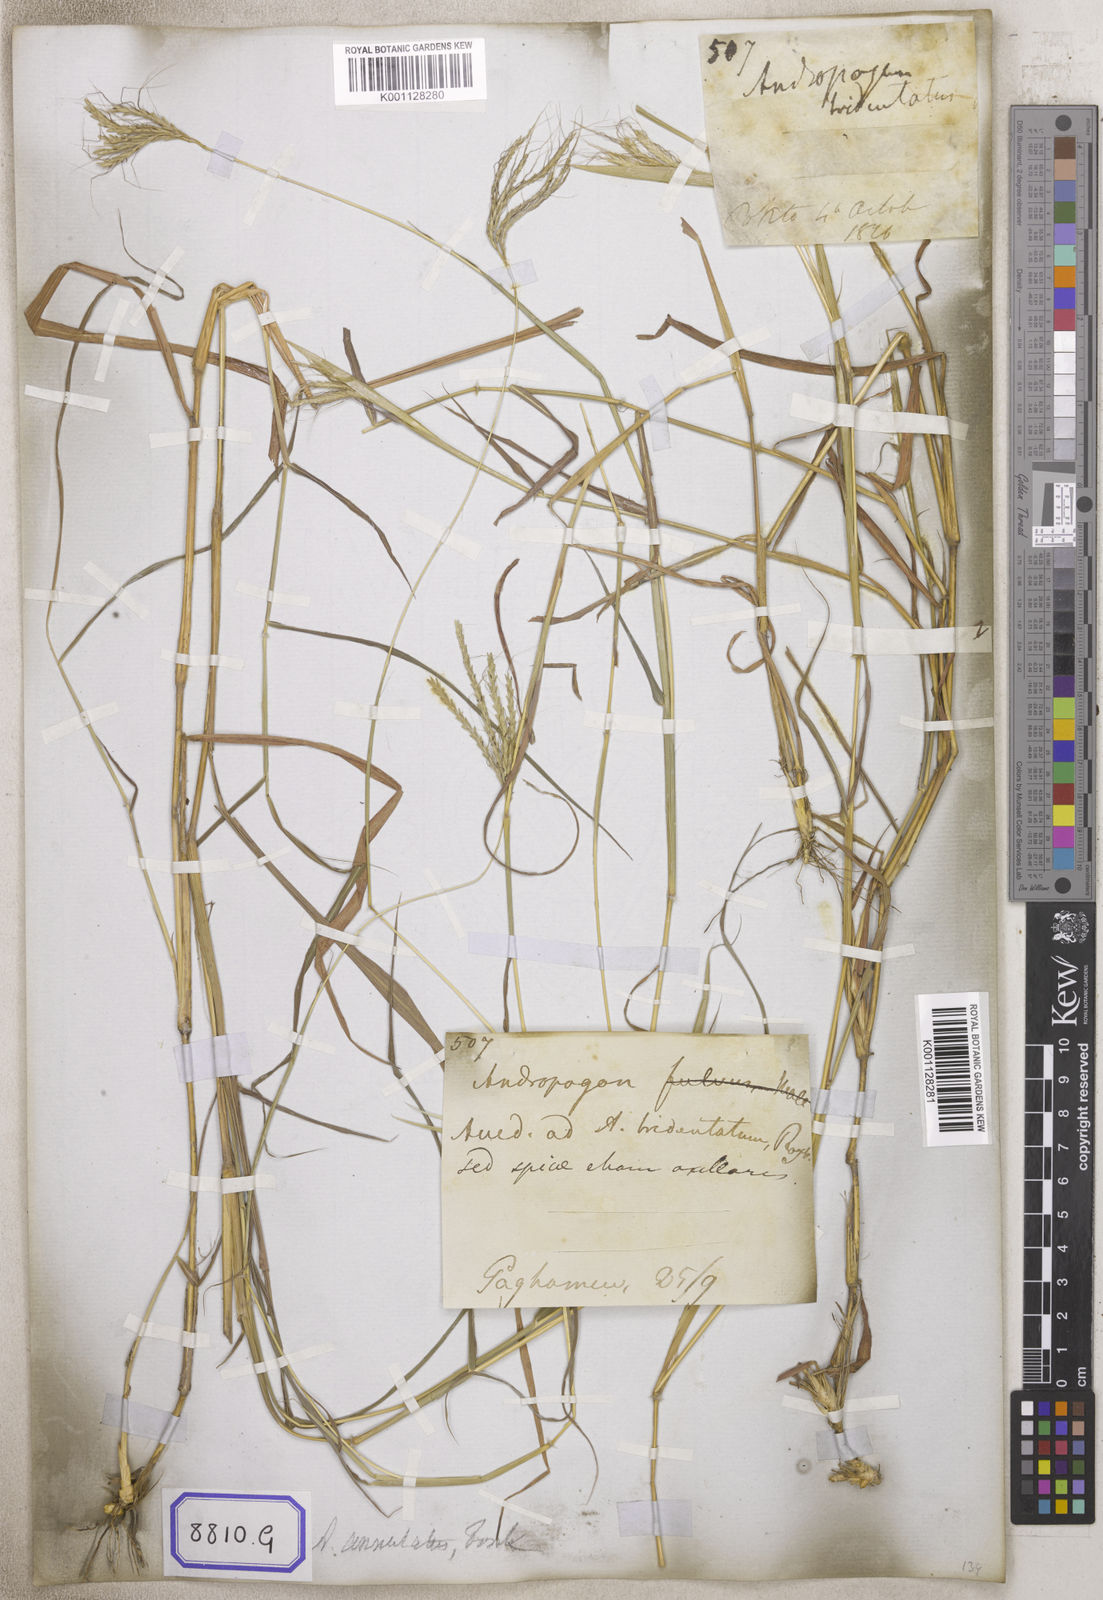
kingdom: Plantae
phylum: Tracheophyta
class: Liliopsida
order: Poales
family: Poaceae
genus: Andropogon
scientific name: Andropogon
